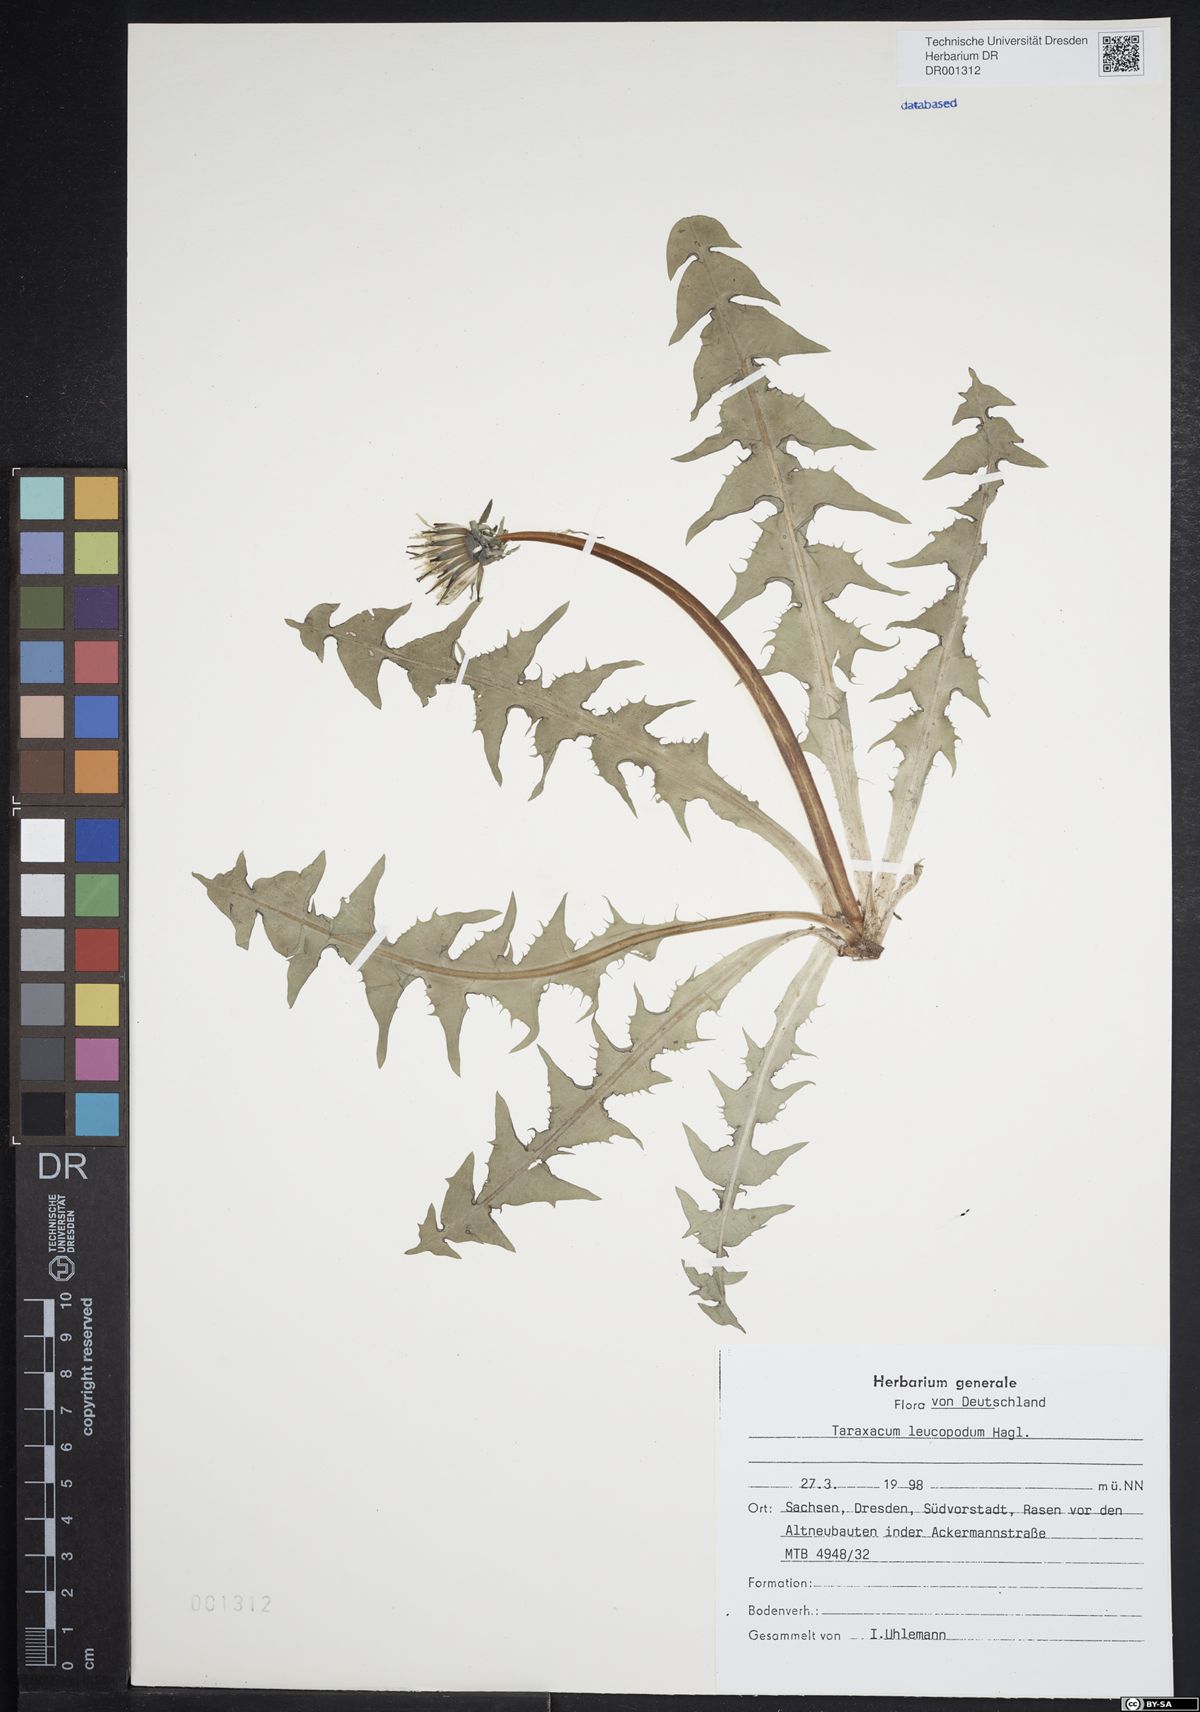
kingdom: Plantae
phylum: Tracheophyta
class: Magnoliopsida
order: Asterales
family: Asteraceae
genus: Taraxacum
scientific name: Taraxacum leucopodum
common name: White-stalked dandelion
